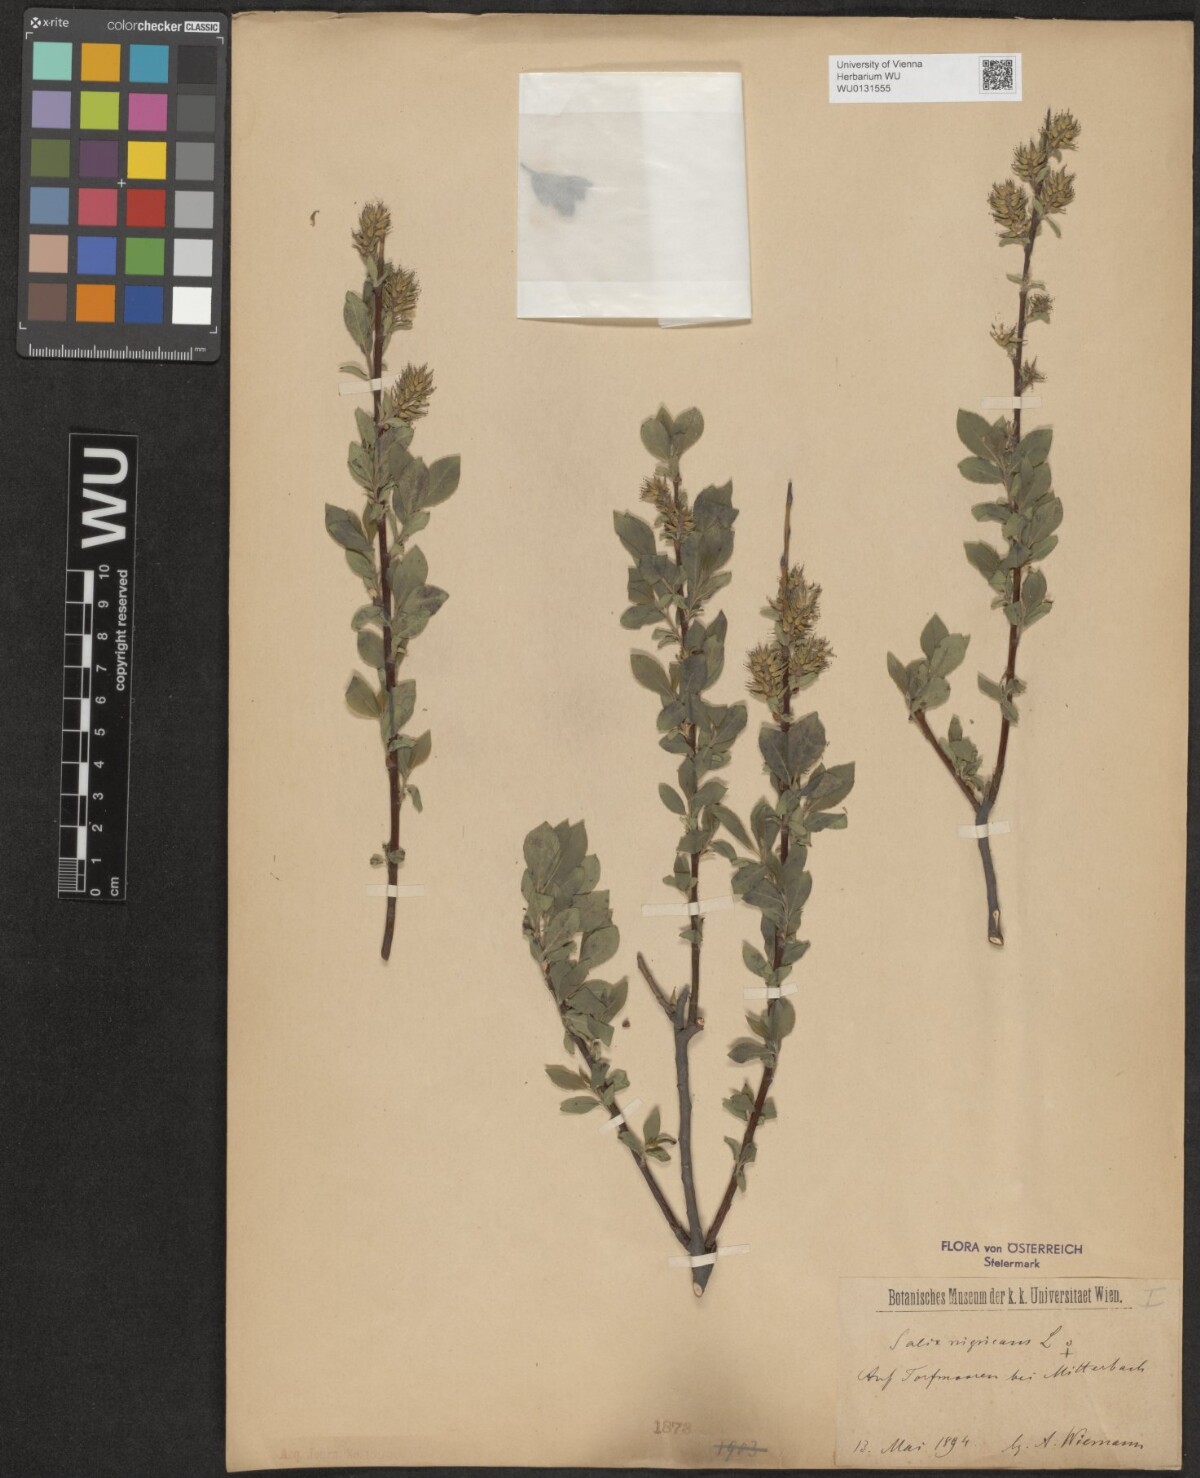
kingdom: Plantae
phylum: Tracheophyta
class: Magnoliopsida
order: Malpighiales
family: Salicaceae
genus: Salix
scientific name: Salix myrsinifolia
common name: Dark-leaved willow
